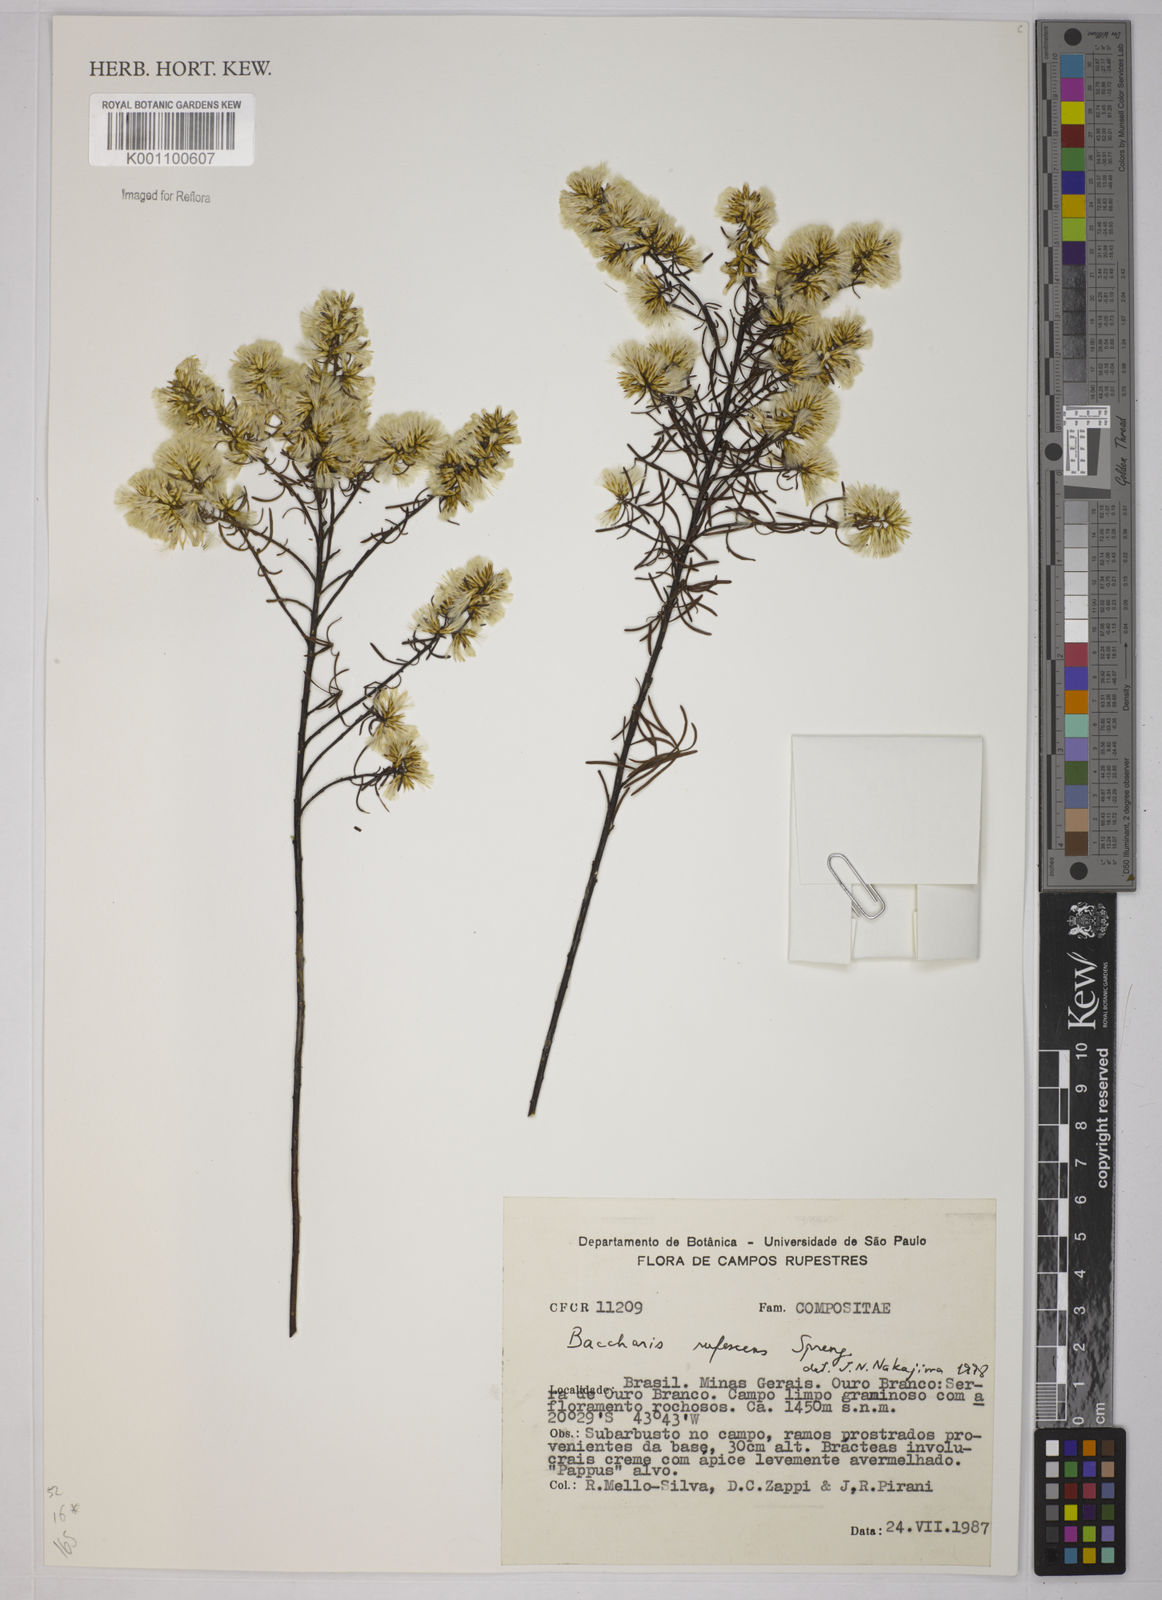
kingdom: Plantae
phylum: Tracheophyta
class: Magnoliopsida
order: Asterales
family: Asteraceae
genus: Baccharis
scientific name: Baccharis rufescens
